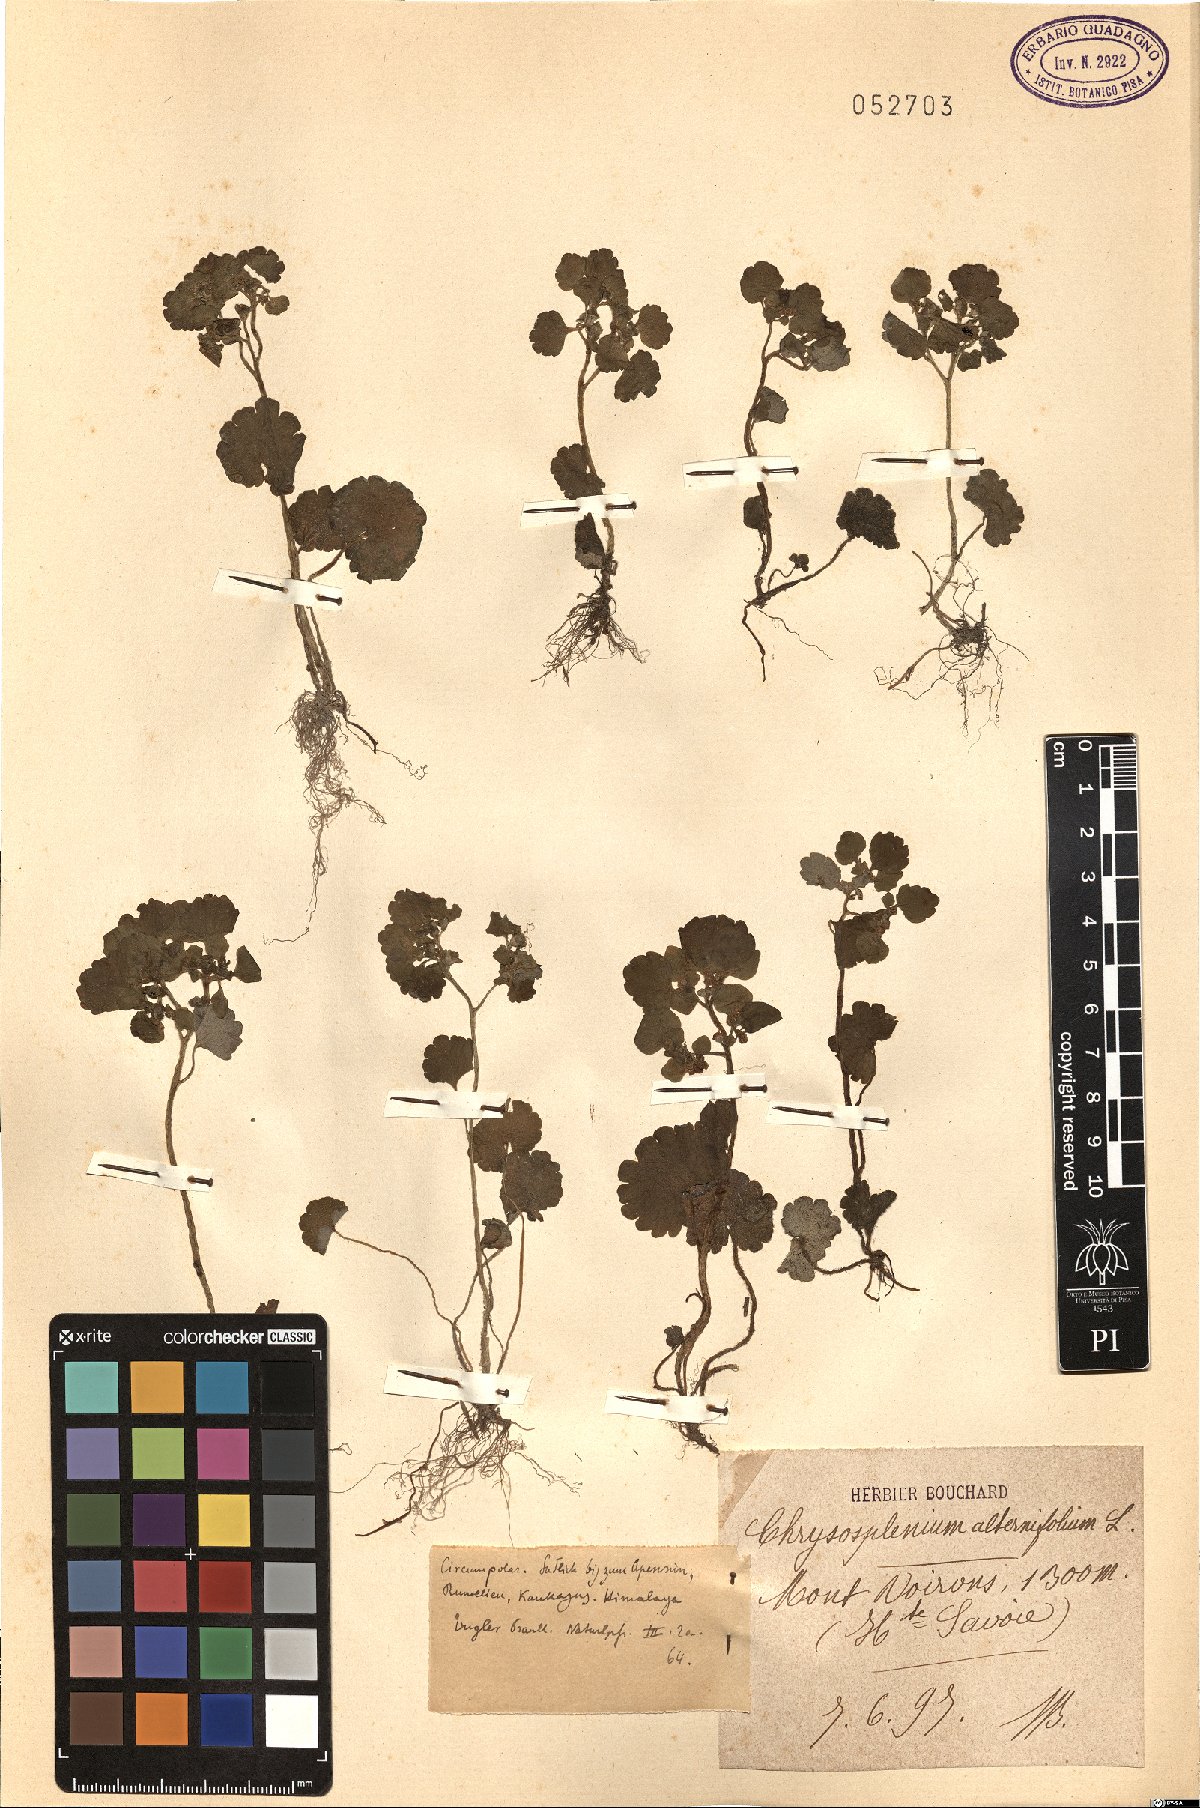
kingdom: Plantae
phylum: Tracheophyta
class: Magnoliopsida
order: Saxifragales
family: Saxifragaceae
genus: Chrysosplenium
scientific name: Chrysosplenium alternifolium
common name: Alternate-leaved golden-saxifrage
